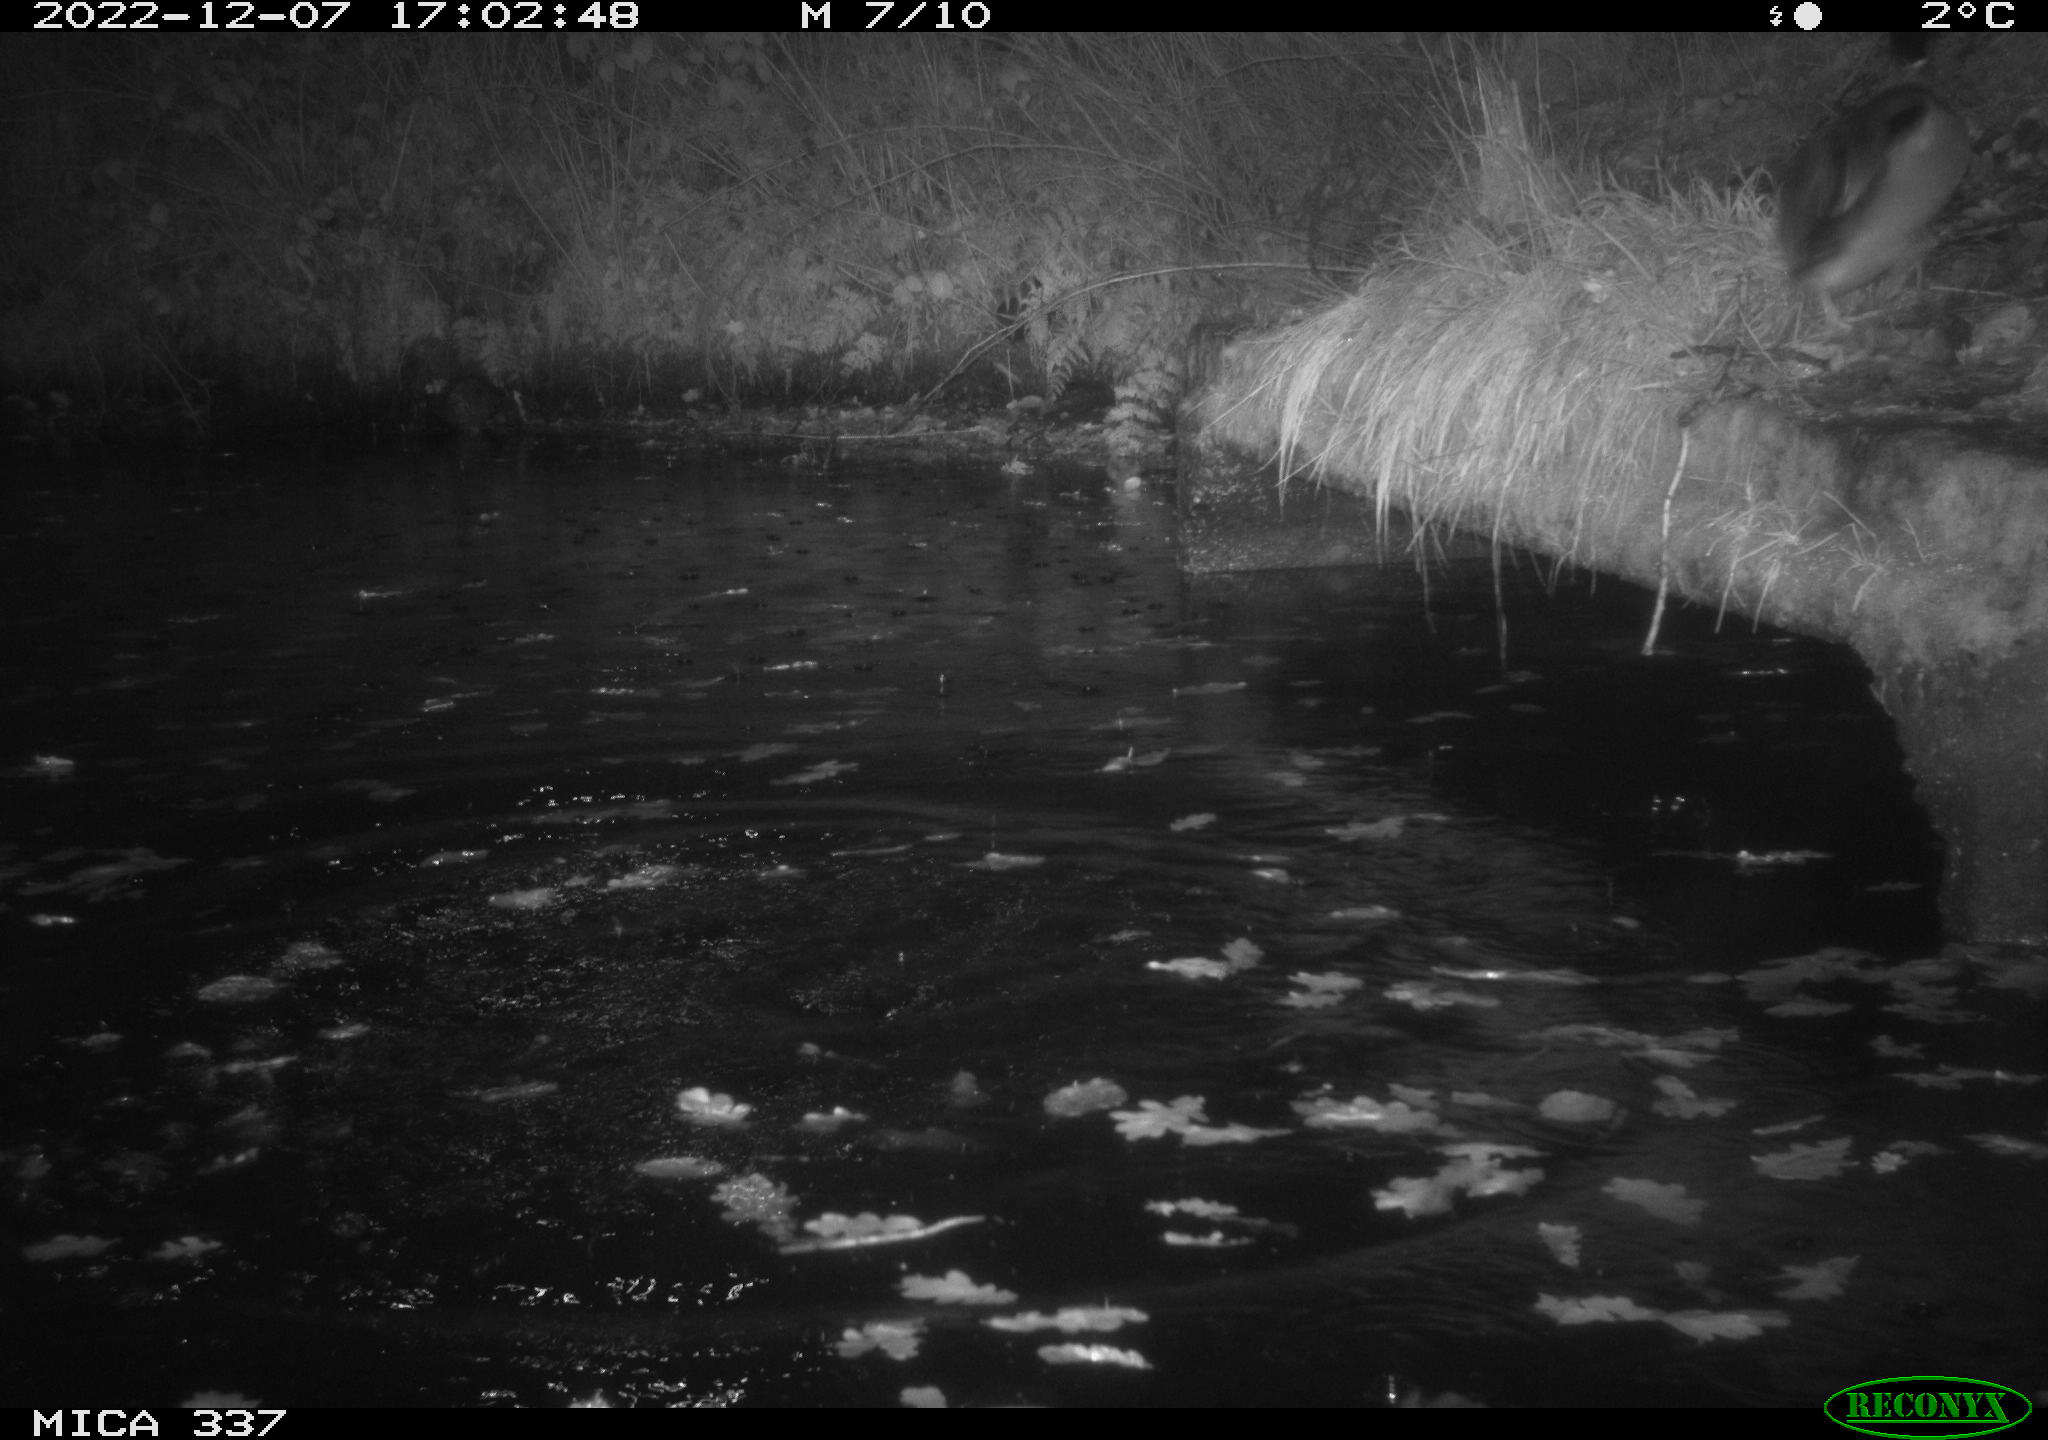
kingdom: Animalia
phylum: Chordata
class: Aves
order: Anseriformes
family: Anatidae
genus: Anas
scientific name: Anas
